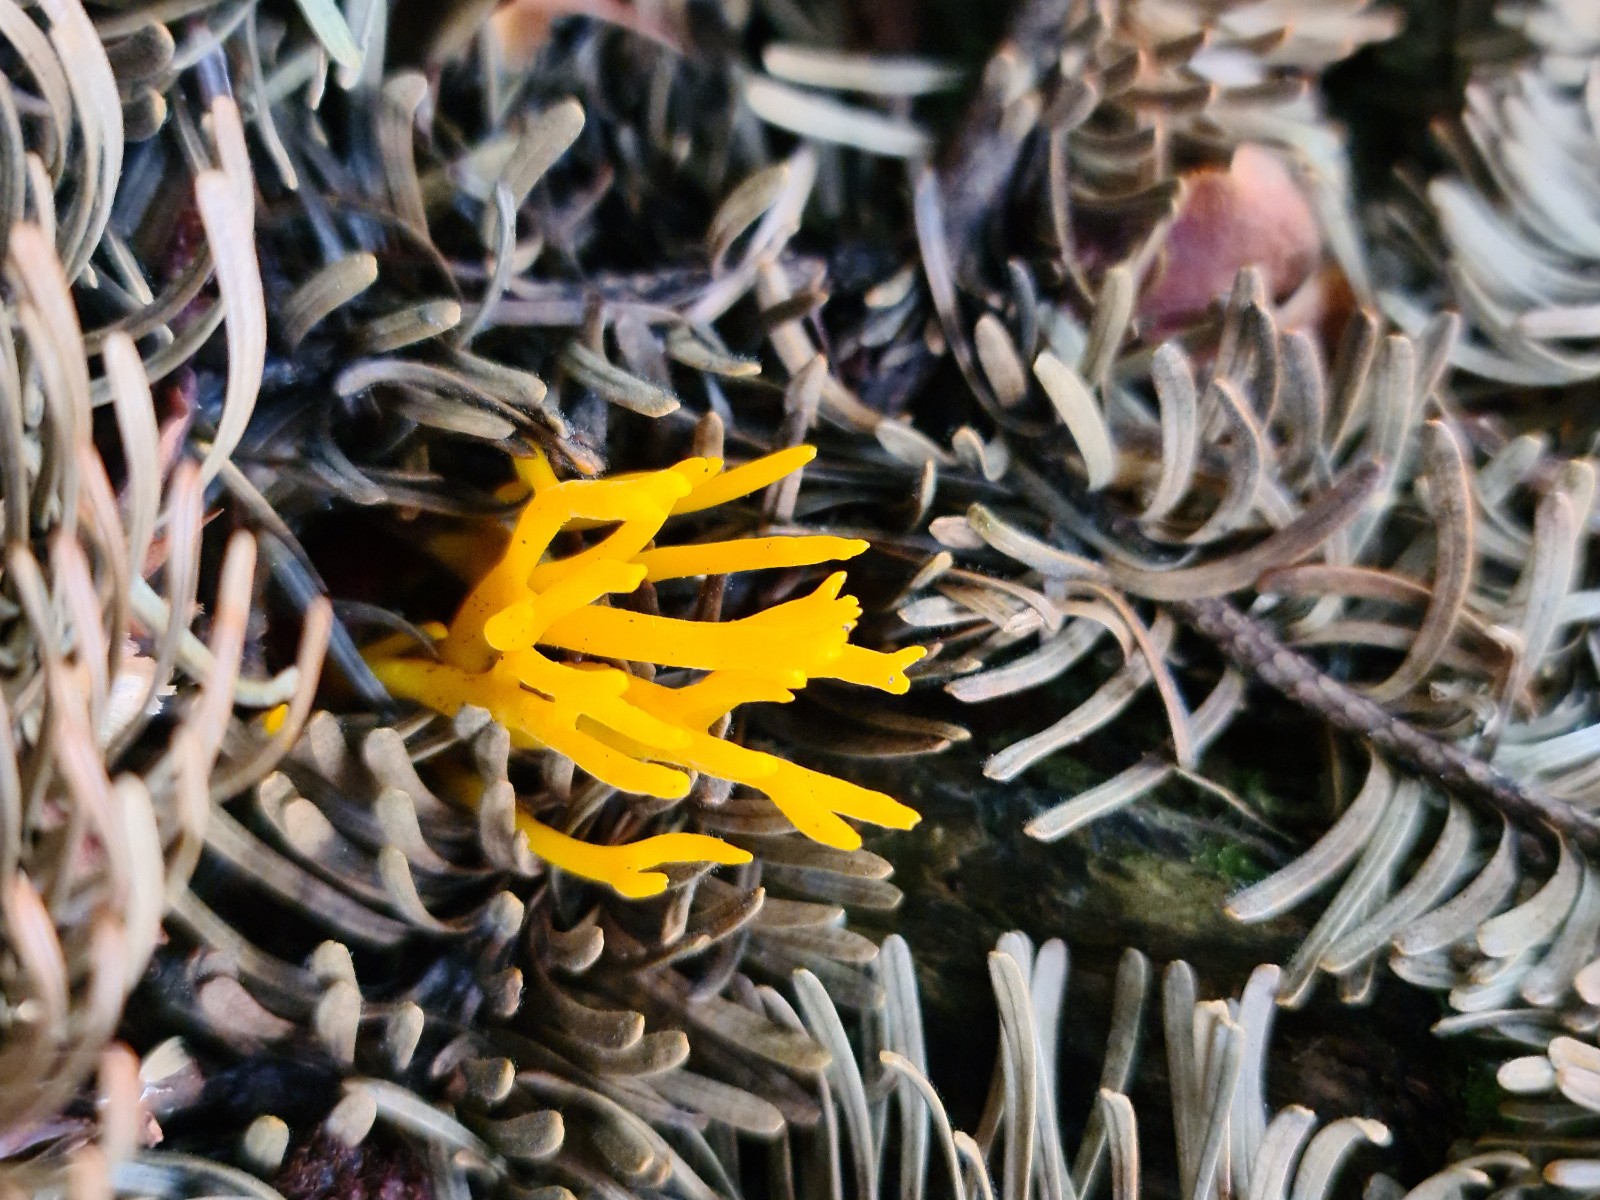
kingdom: Fungi
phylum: Basidiomycota
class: Dacrymycetes
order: Dacrymycetales
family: Dacrymycetaceae
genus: Calocera
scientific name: Calocera viscosa
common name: almindelig guldgaffel
